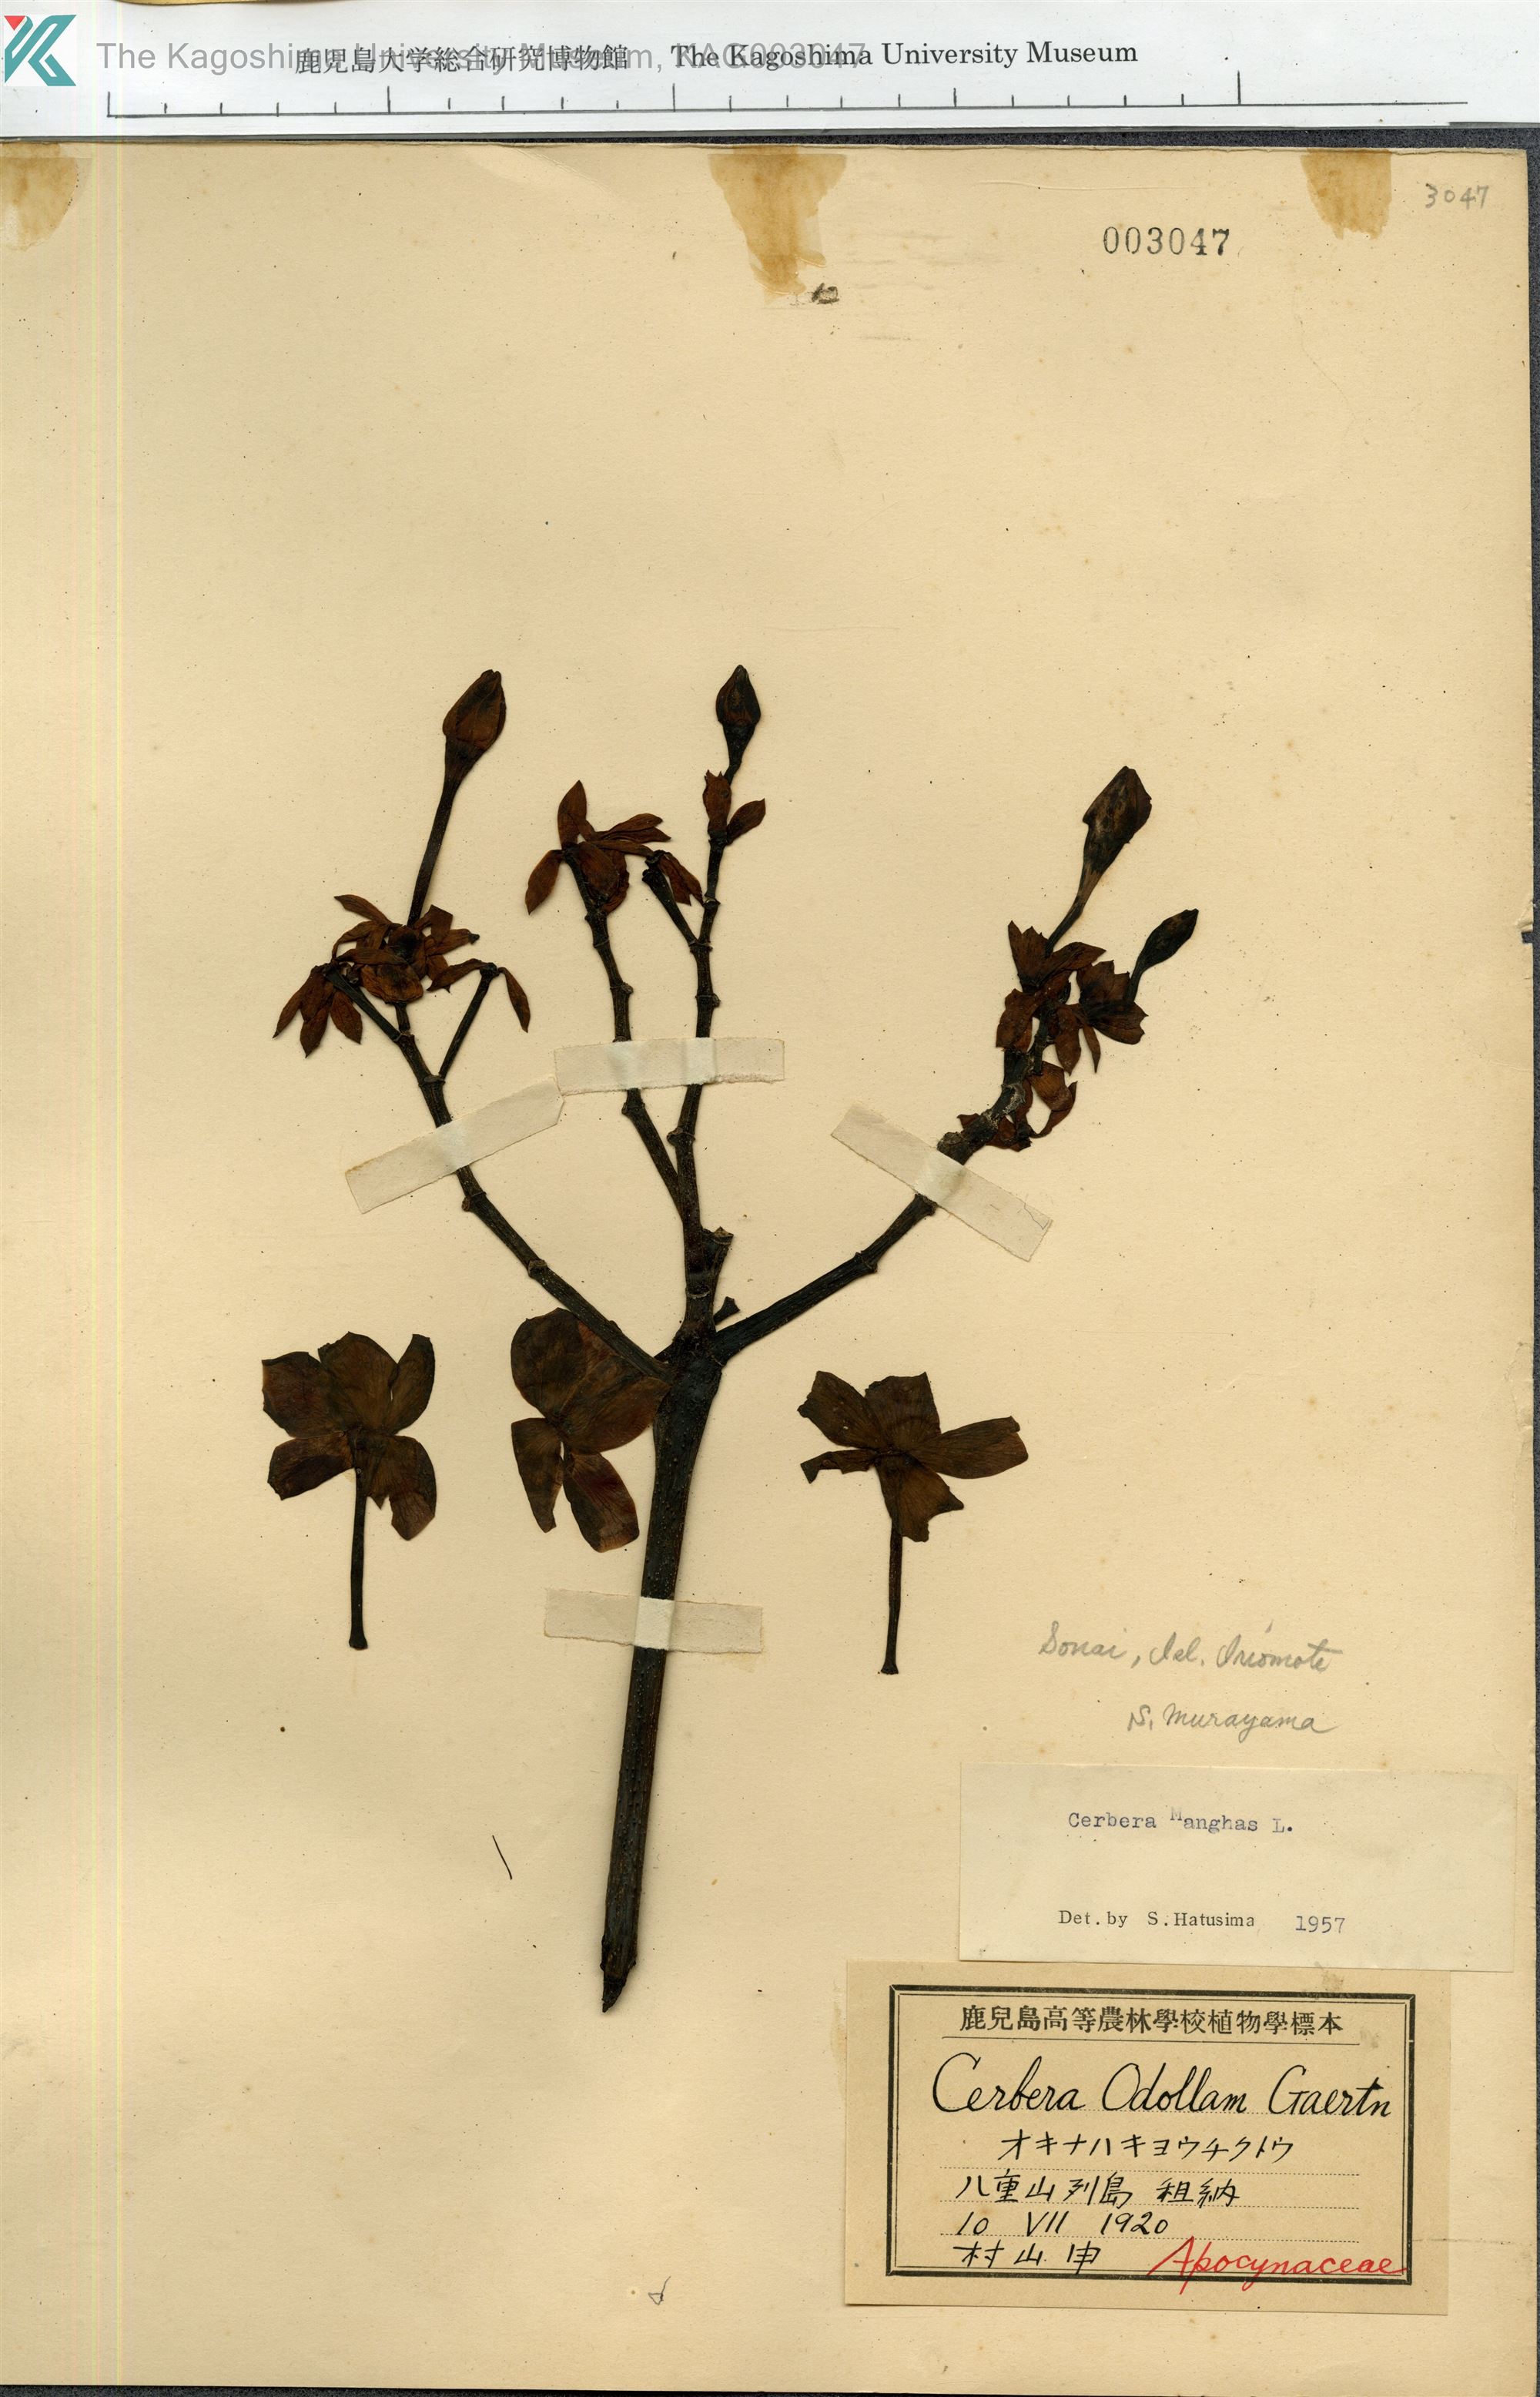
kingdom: Plantae
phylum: Tracheophyta
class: Magnoliopsida
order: Gentianales
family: Apocynaceae
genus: Cerbera
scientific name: Cerbera manghas
